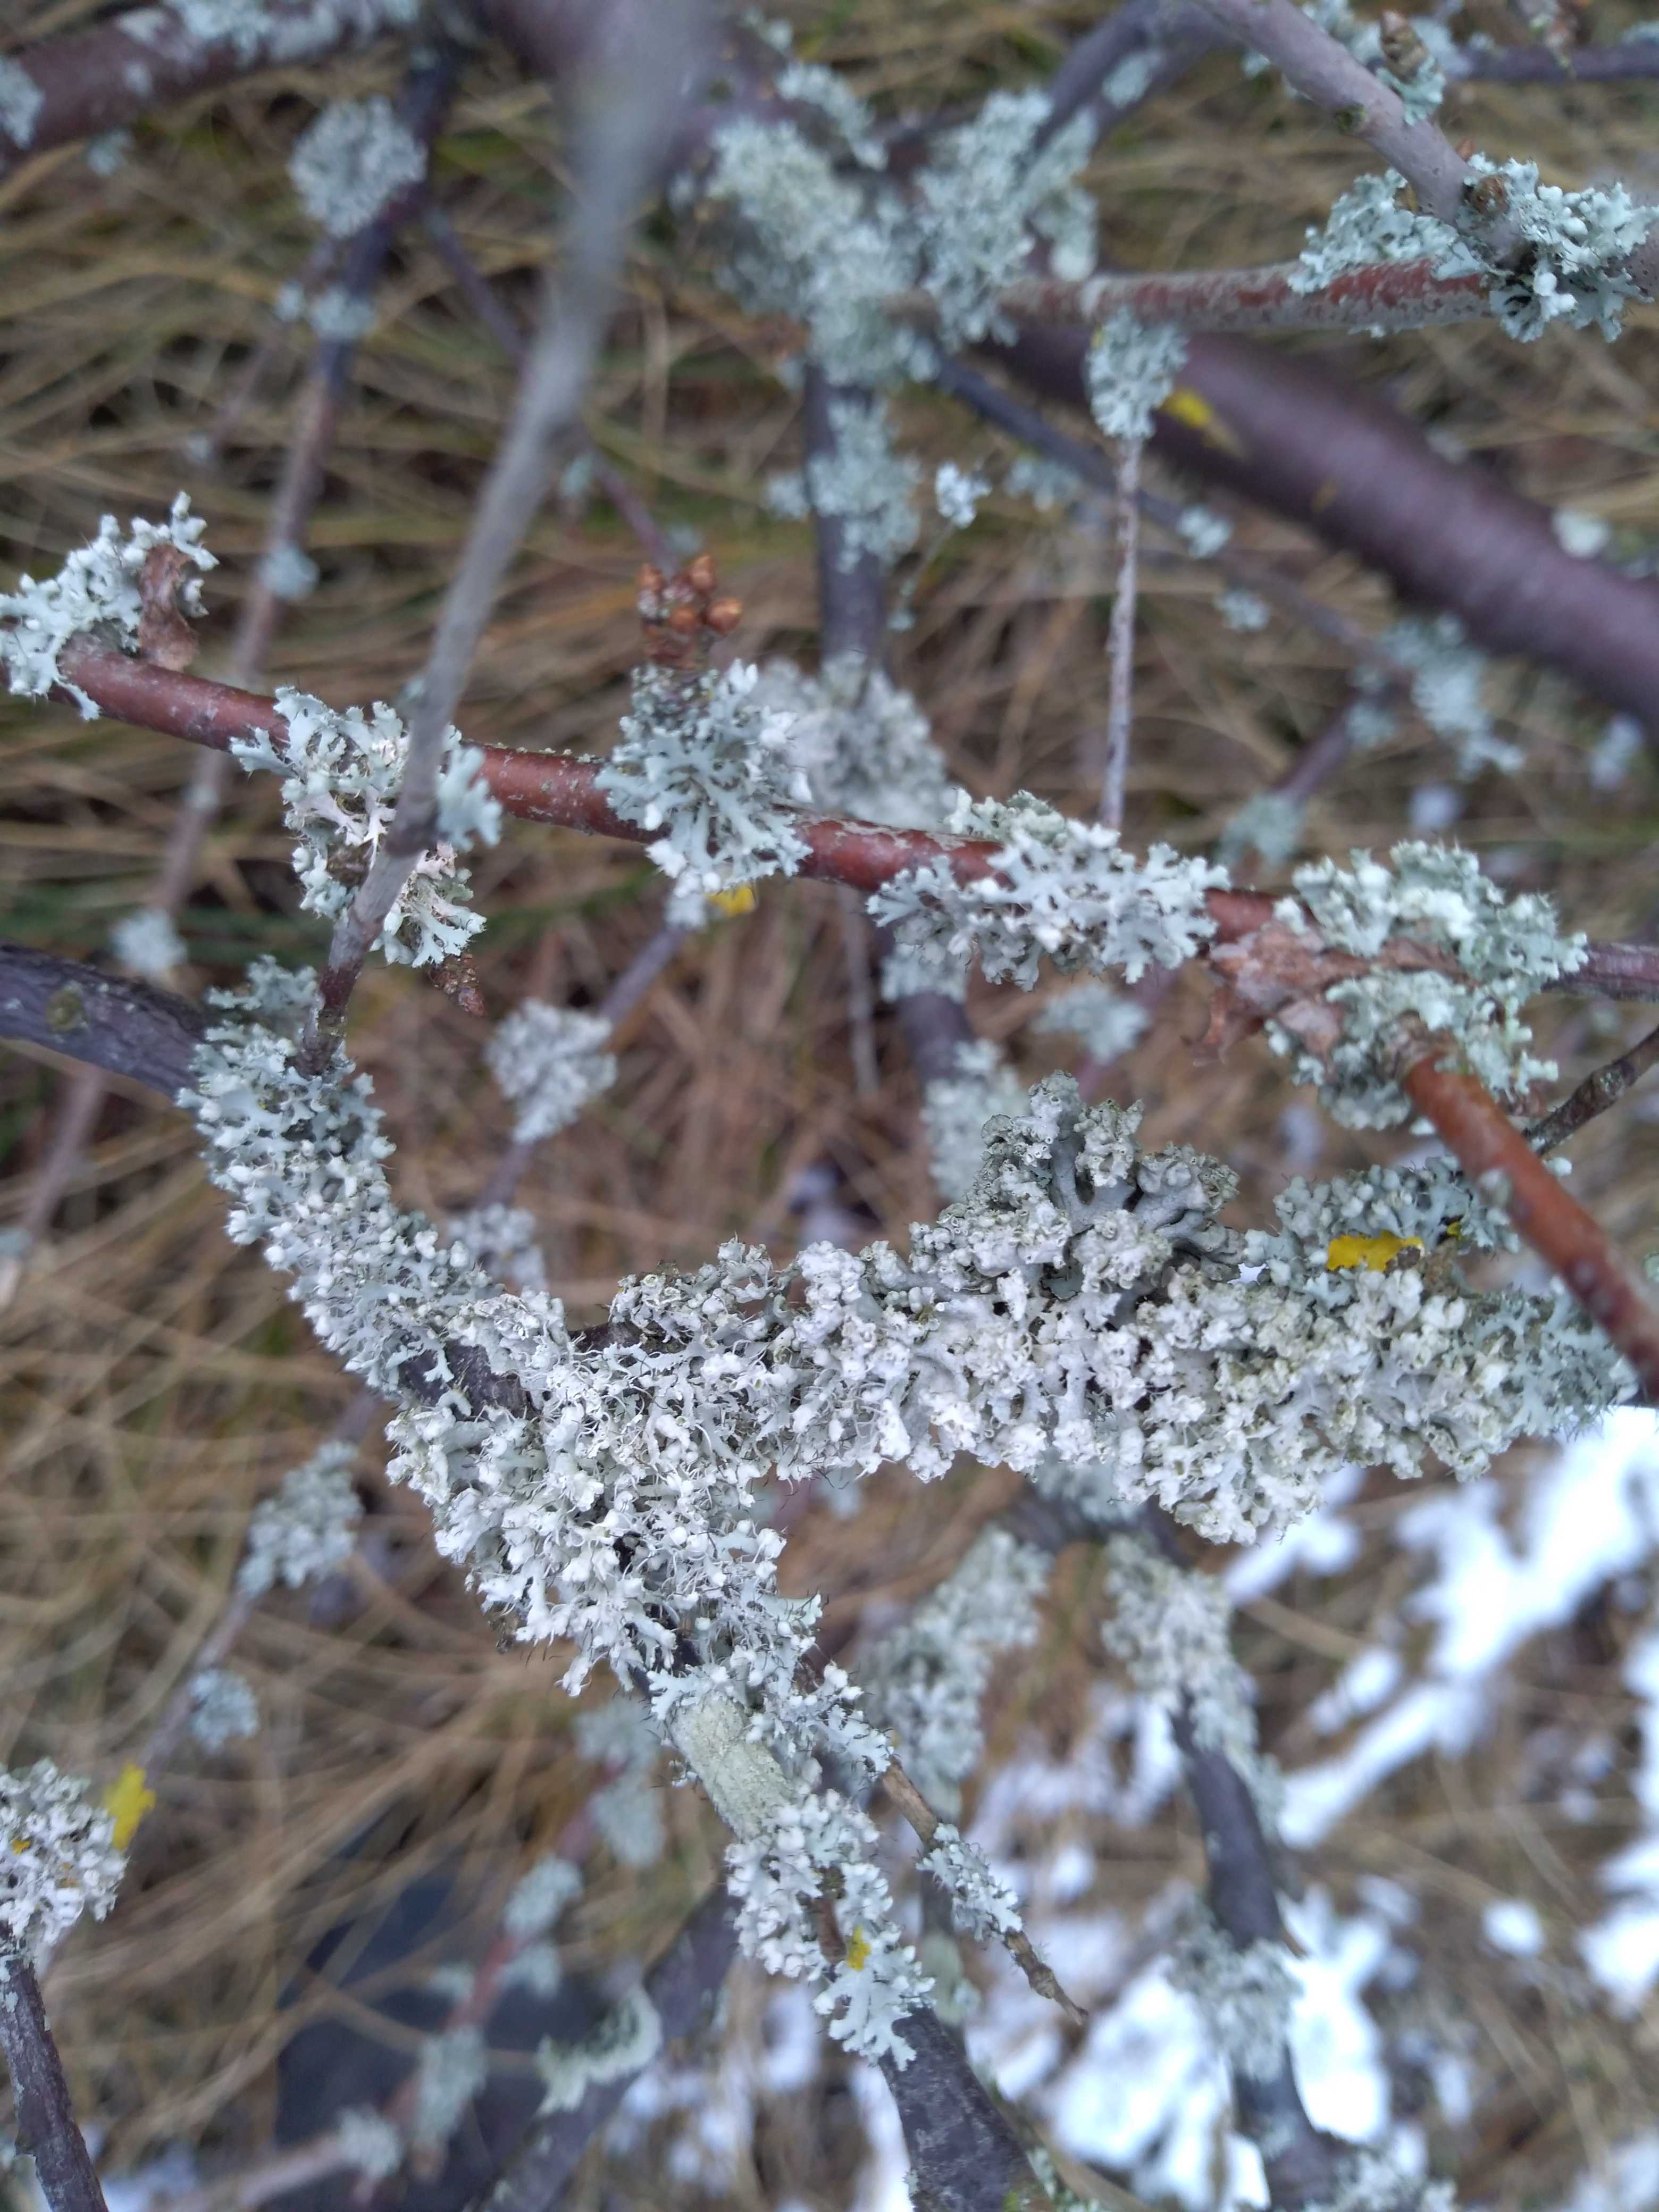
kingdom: Fungi
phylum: Ascomycota
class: Lecanoromycetes
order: Caliciales
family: Physciaceae
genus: Physcia
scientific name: Physcia adscendens
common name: hætte-rosetlav
